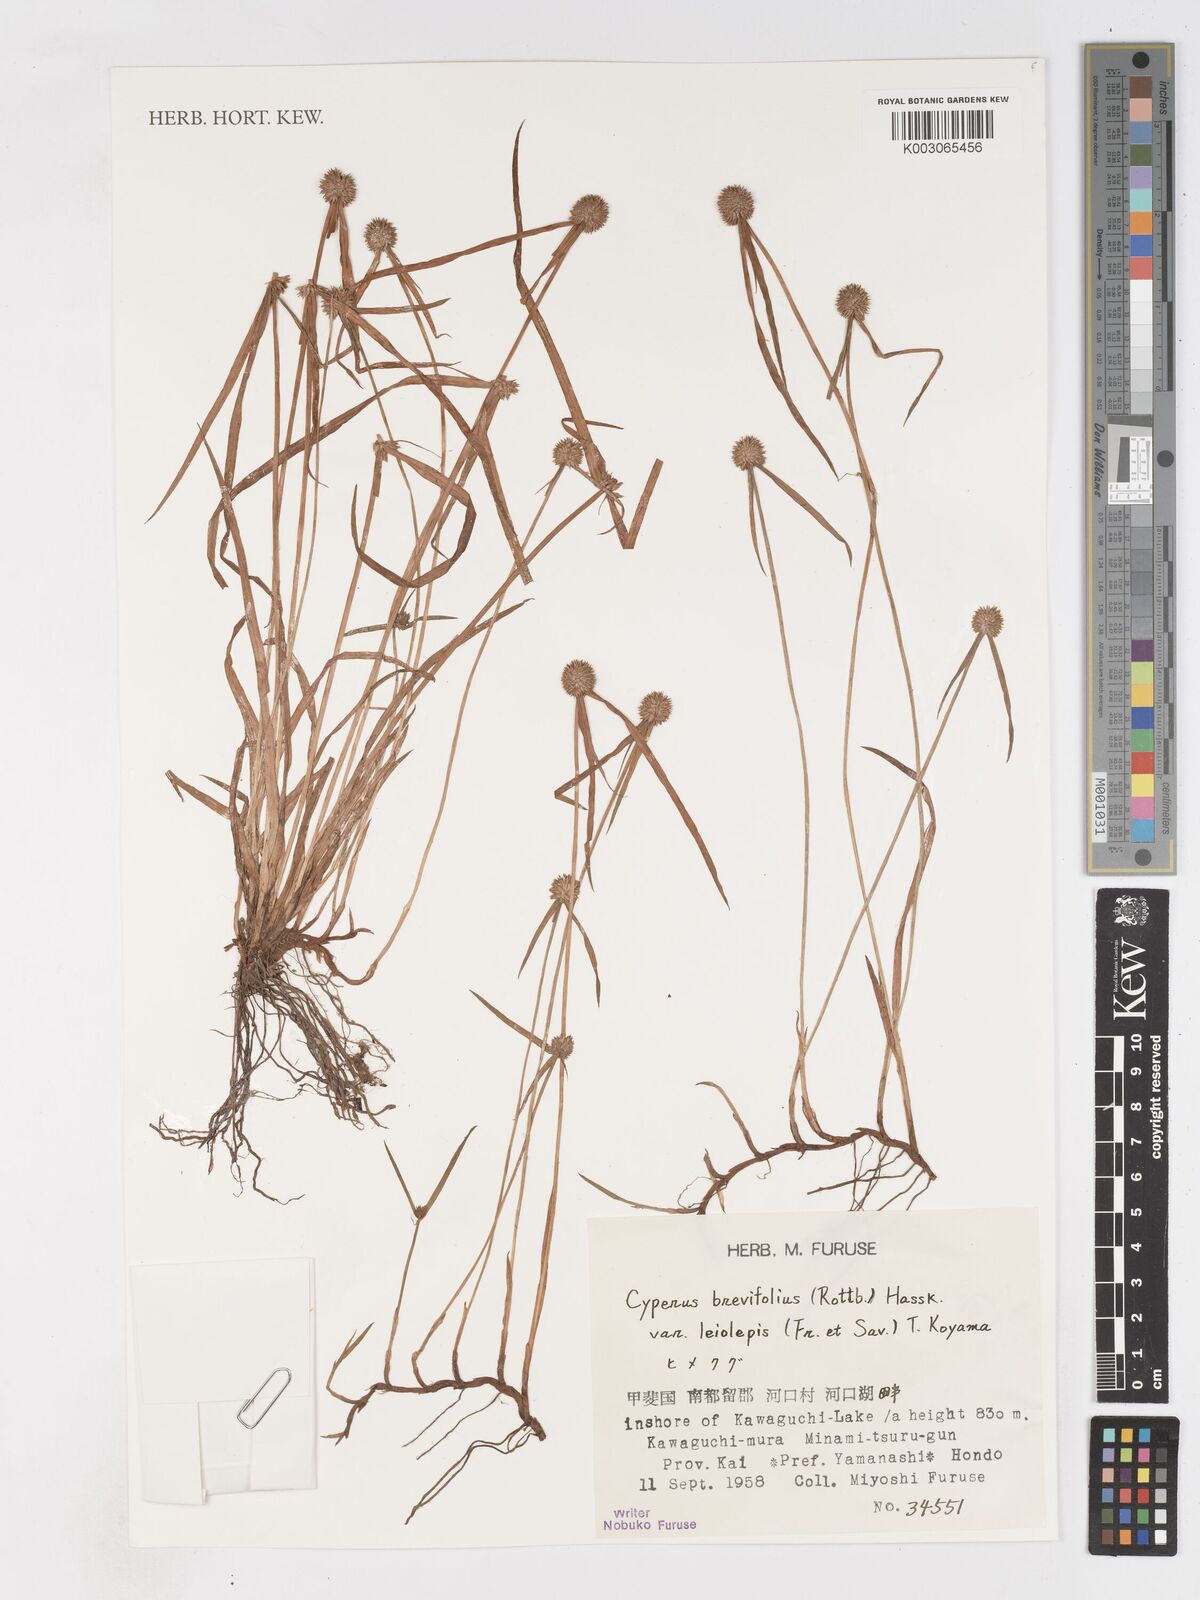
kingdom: Plantae
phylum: Tracheophyta
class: Liliopsida
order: Poales
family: Cyperaceae
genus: Cyperus
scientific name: Cyperus brevifolius
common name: Globe kyllinga
